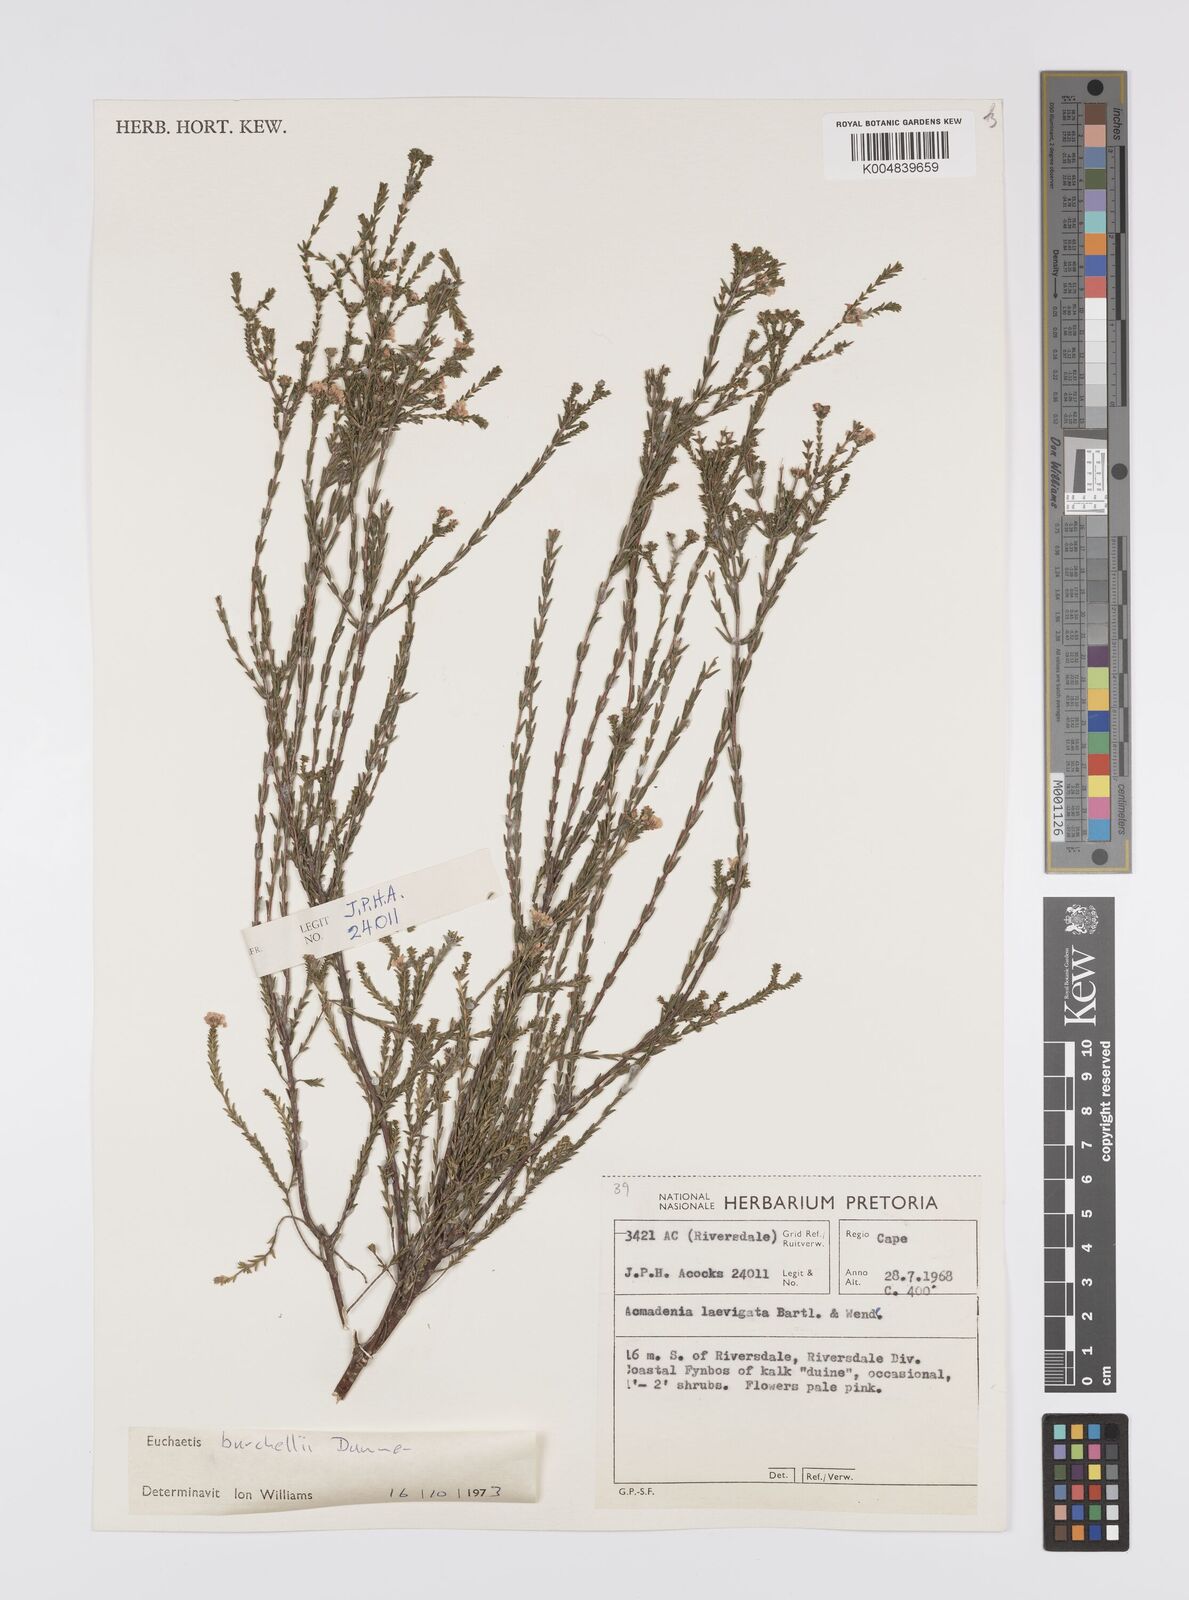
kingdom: Plantae
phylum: Tracheophyta
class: Magnoliopsida
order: Sapindales
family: Rutaceae
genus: Euchaetis
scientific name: Euchaetis burchellii
